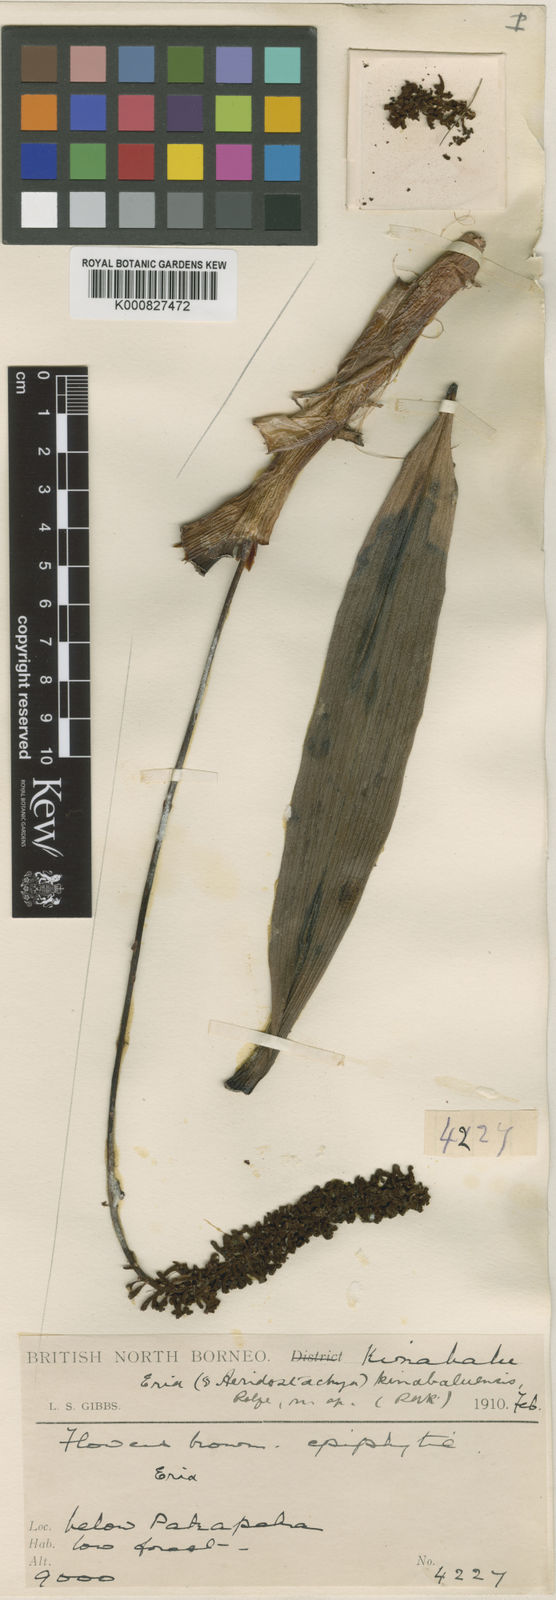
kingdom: Plantae
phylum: Tracheophyta
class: Liliopsida
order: Asparagales
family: Orchidaceae
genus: Aeridostachya
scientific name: Aeridostachya robusta
